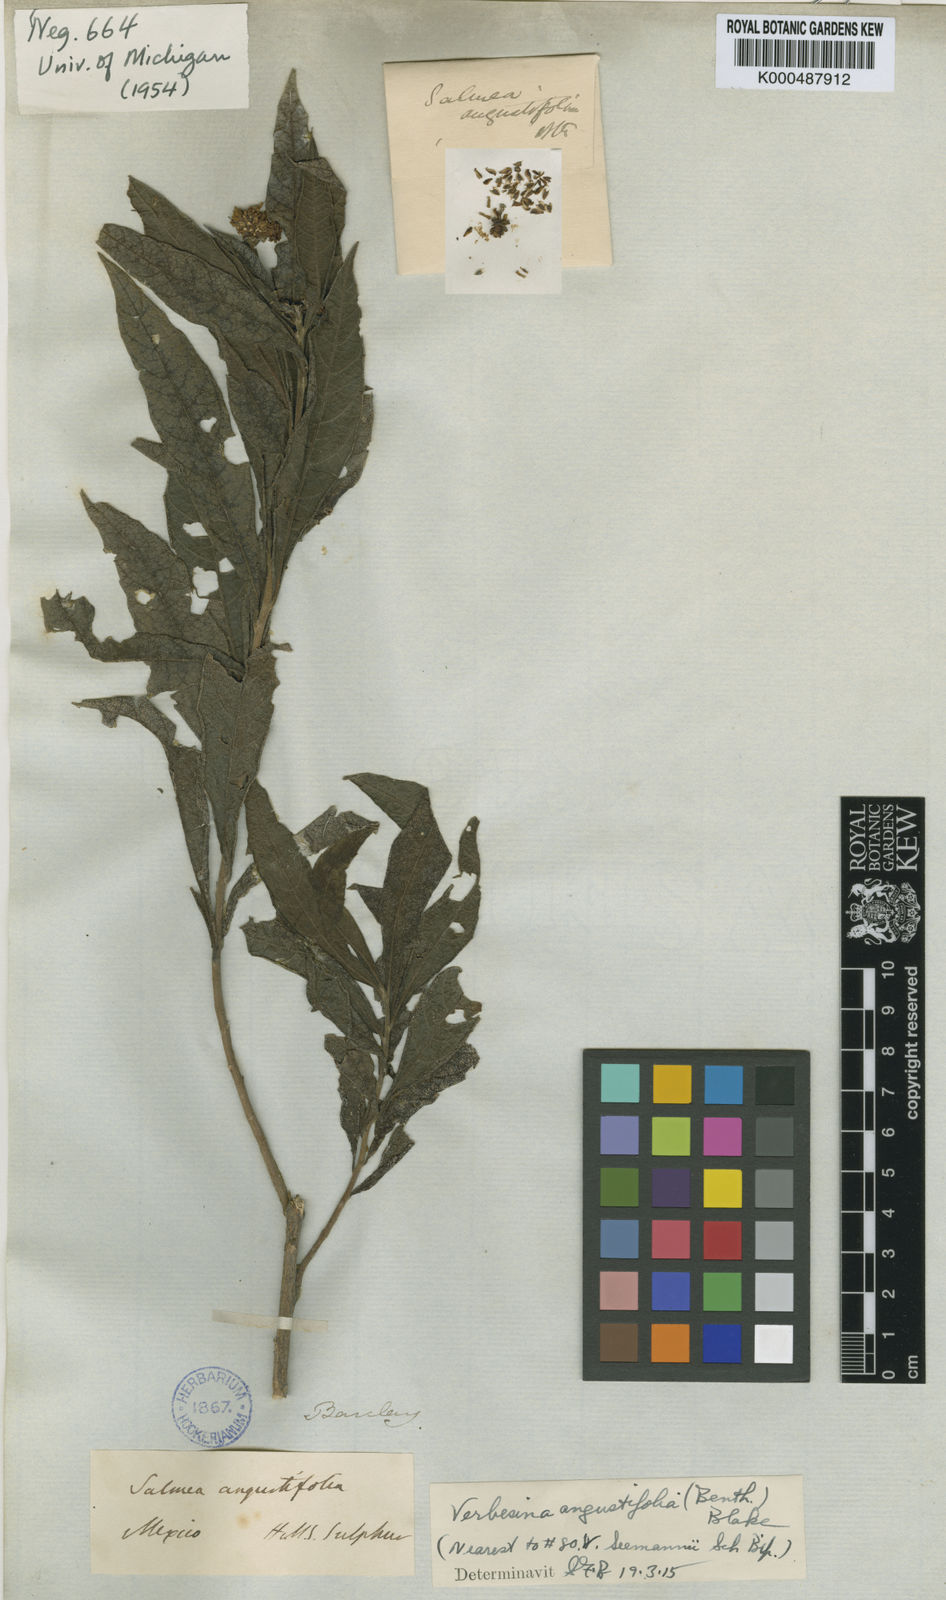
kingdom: Plantae
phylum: Tracheophyta
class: Magnoliopsida
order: Asterales
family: Asteraceae
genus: Verbesina
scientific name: Verbesina angustifolia
